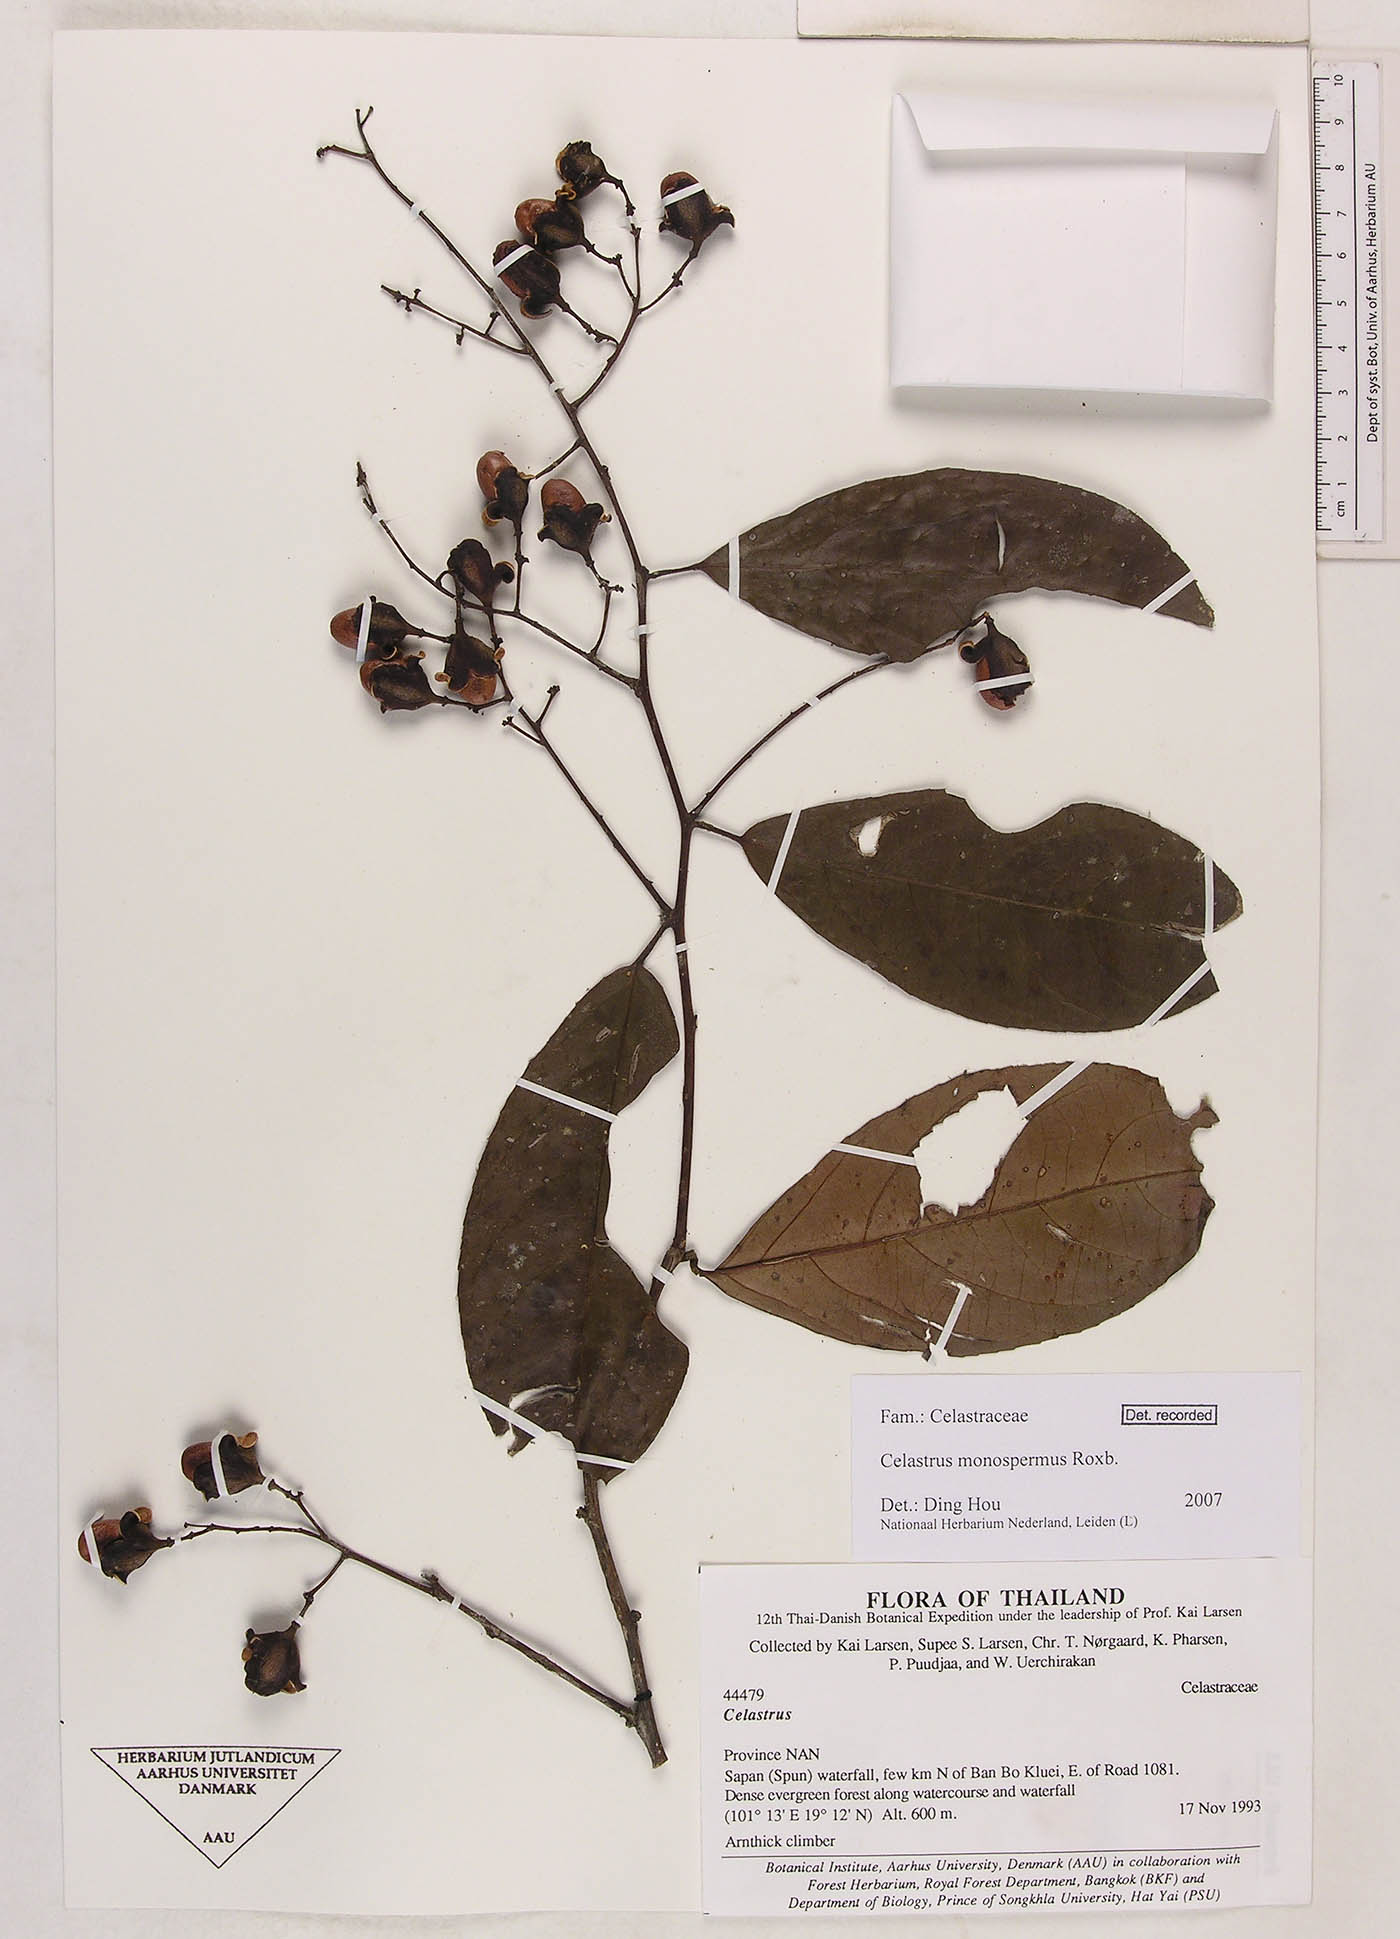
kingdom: Plantae
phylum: Tracheophyta
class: Magnoliopsida
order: Celastrales
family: Celastraceae
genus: Celastrus
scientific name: Celastrus monospermus
